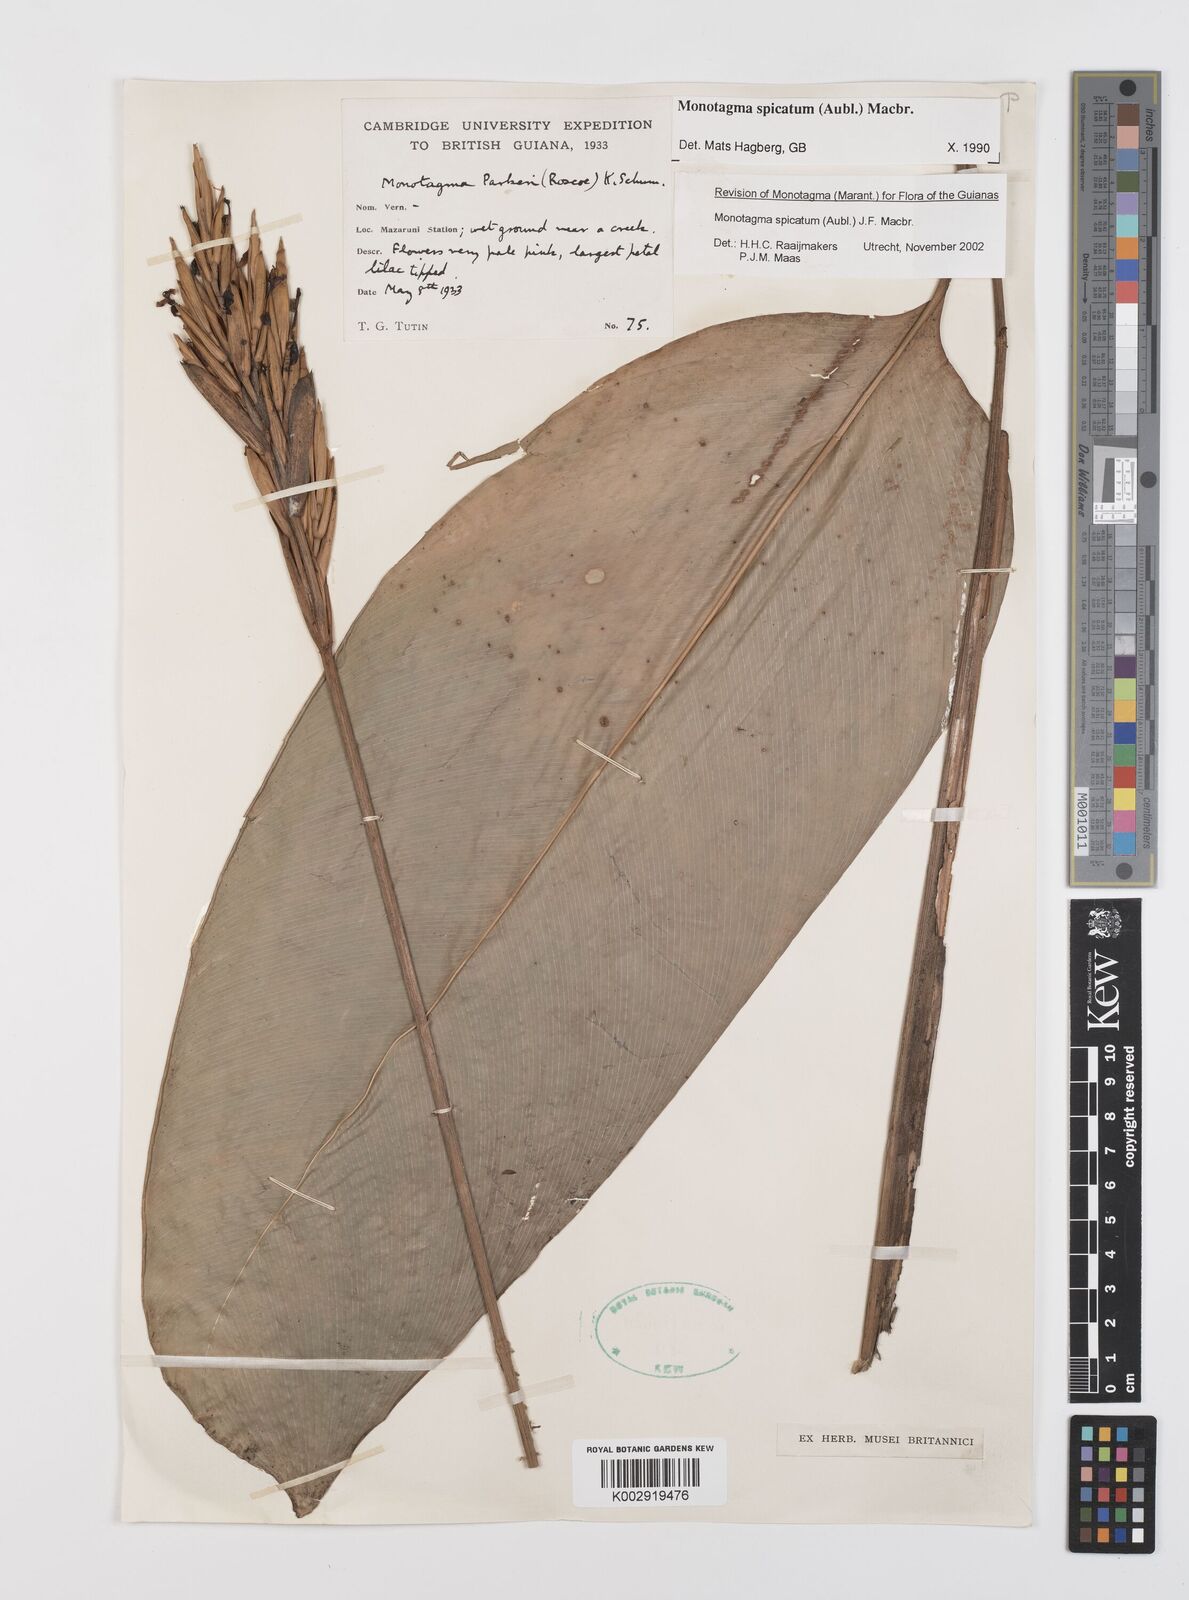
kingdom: Plantae
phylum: Tracheophyta
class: Liliopsida
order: Zingiberales
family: Marantaceae
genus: Monotagma
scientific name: Monotagma spicatum
